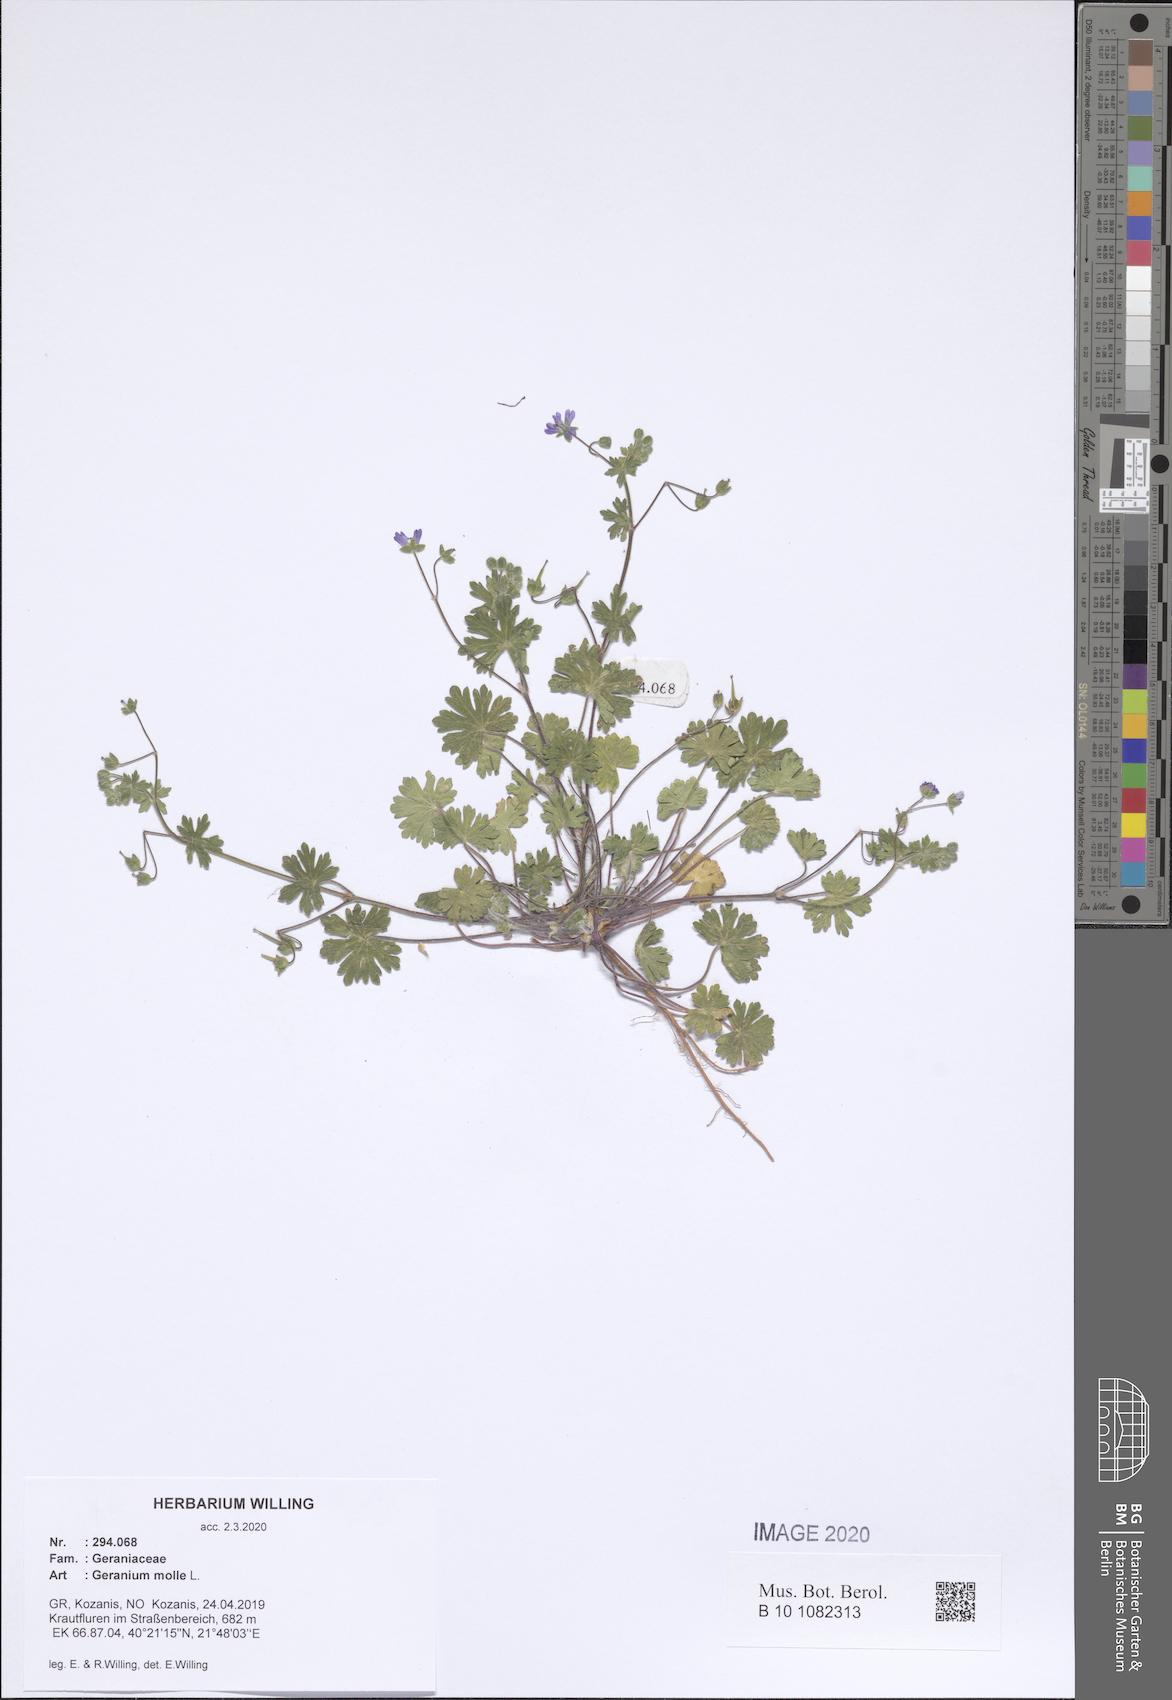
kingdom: Plantae
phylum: Tracheophyta
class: Magnoliopsida
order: Geraniales
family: Geraniaceae
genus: Geranium
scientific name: Geranium molle
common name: Dove's-foot crane's-bill
